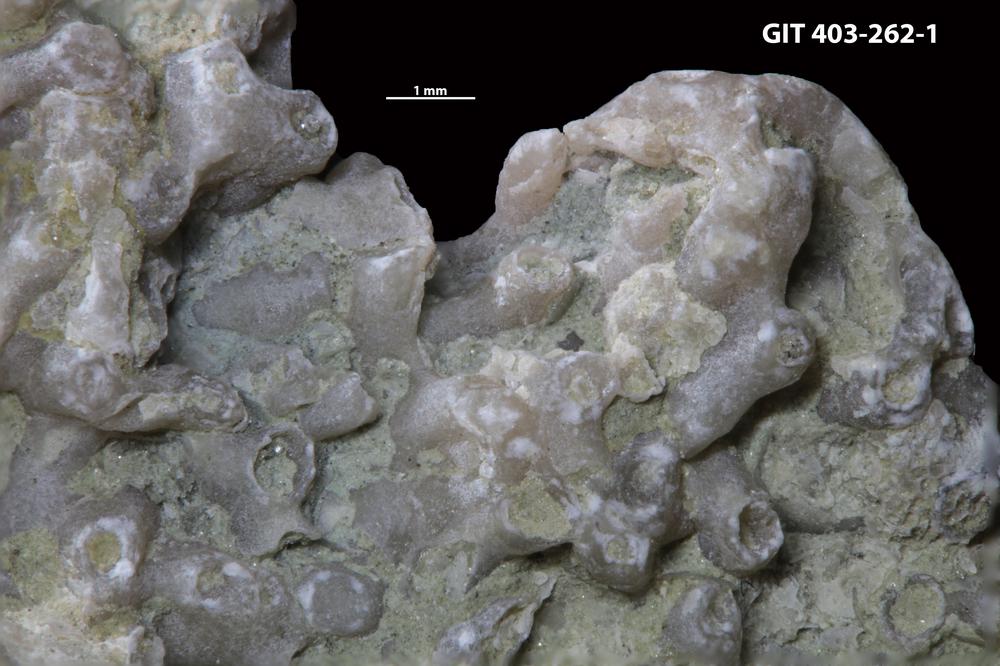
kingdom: Animalia
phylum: Cnidaria
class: Anthozoa
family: Auloporidae
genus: Aulopora
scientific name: Aulopora
